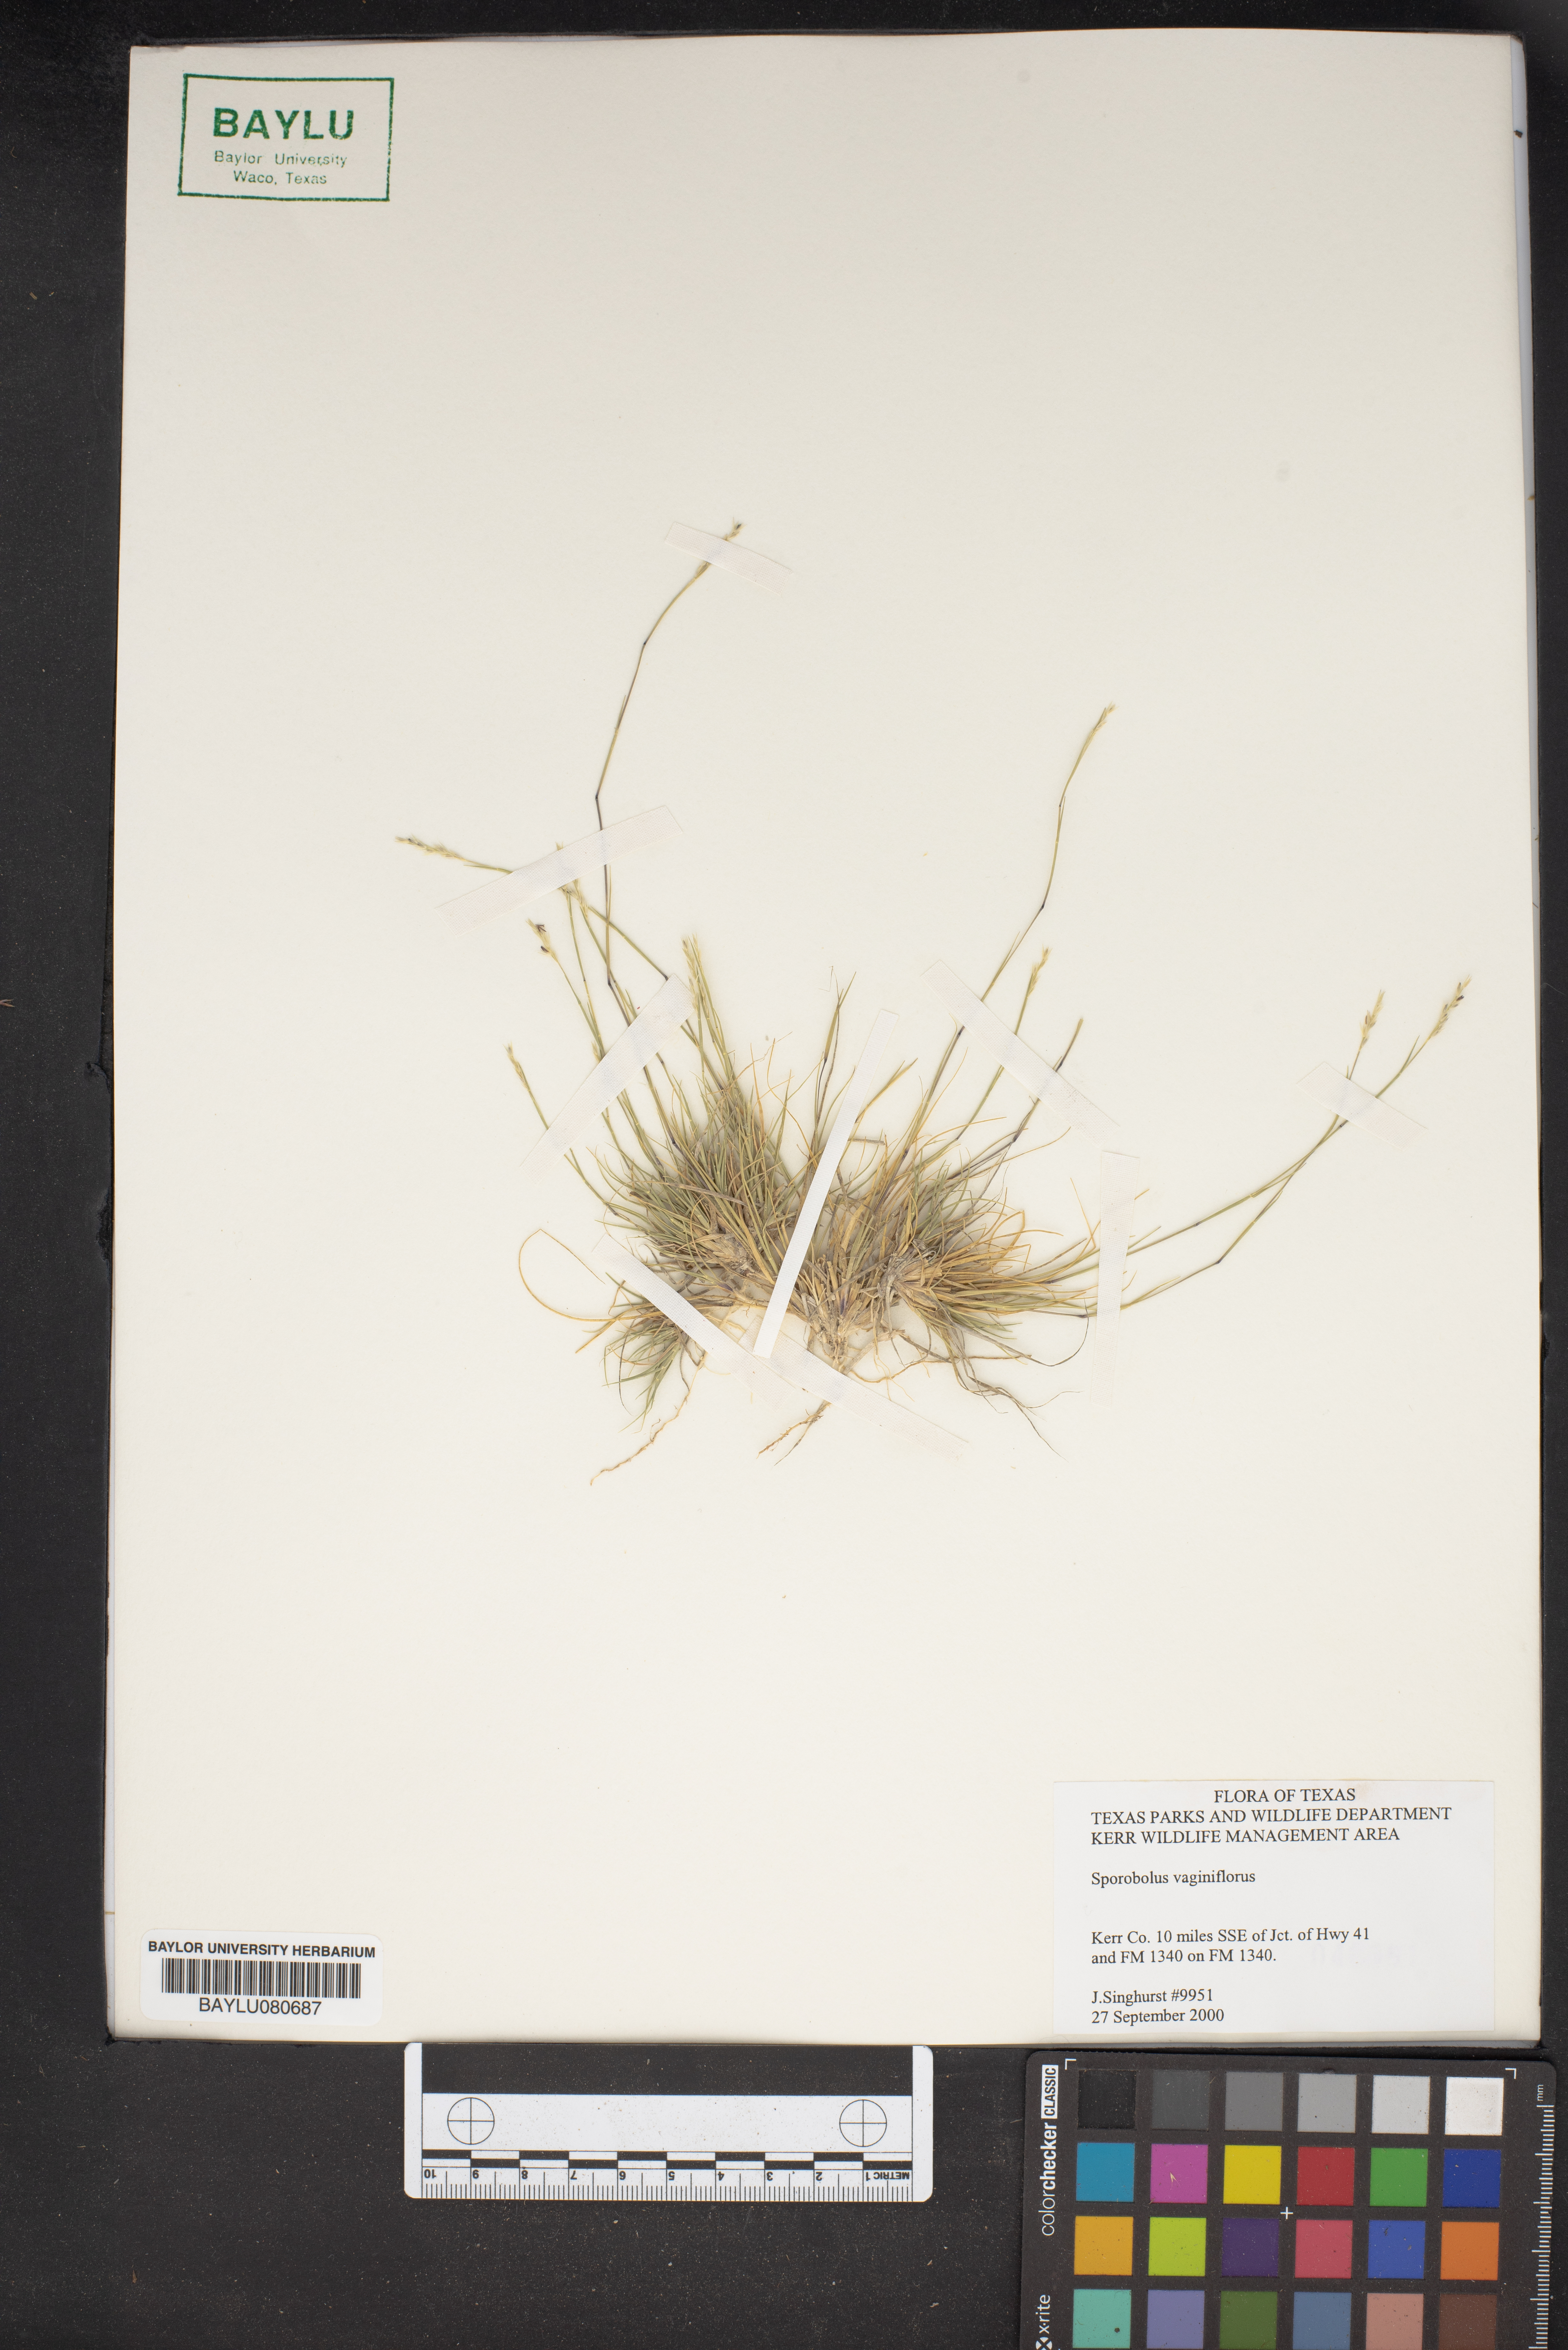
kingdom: Plantae
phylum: Tracheophyta
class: Liliopsida
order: Poales
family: Poaceae
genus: Sporobolus
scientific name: Sporobolus vaginiflorus
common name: Poverty dropseed
